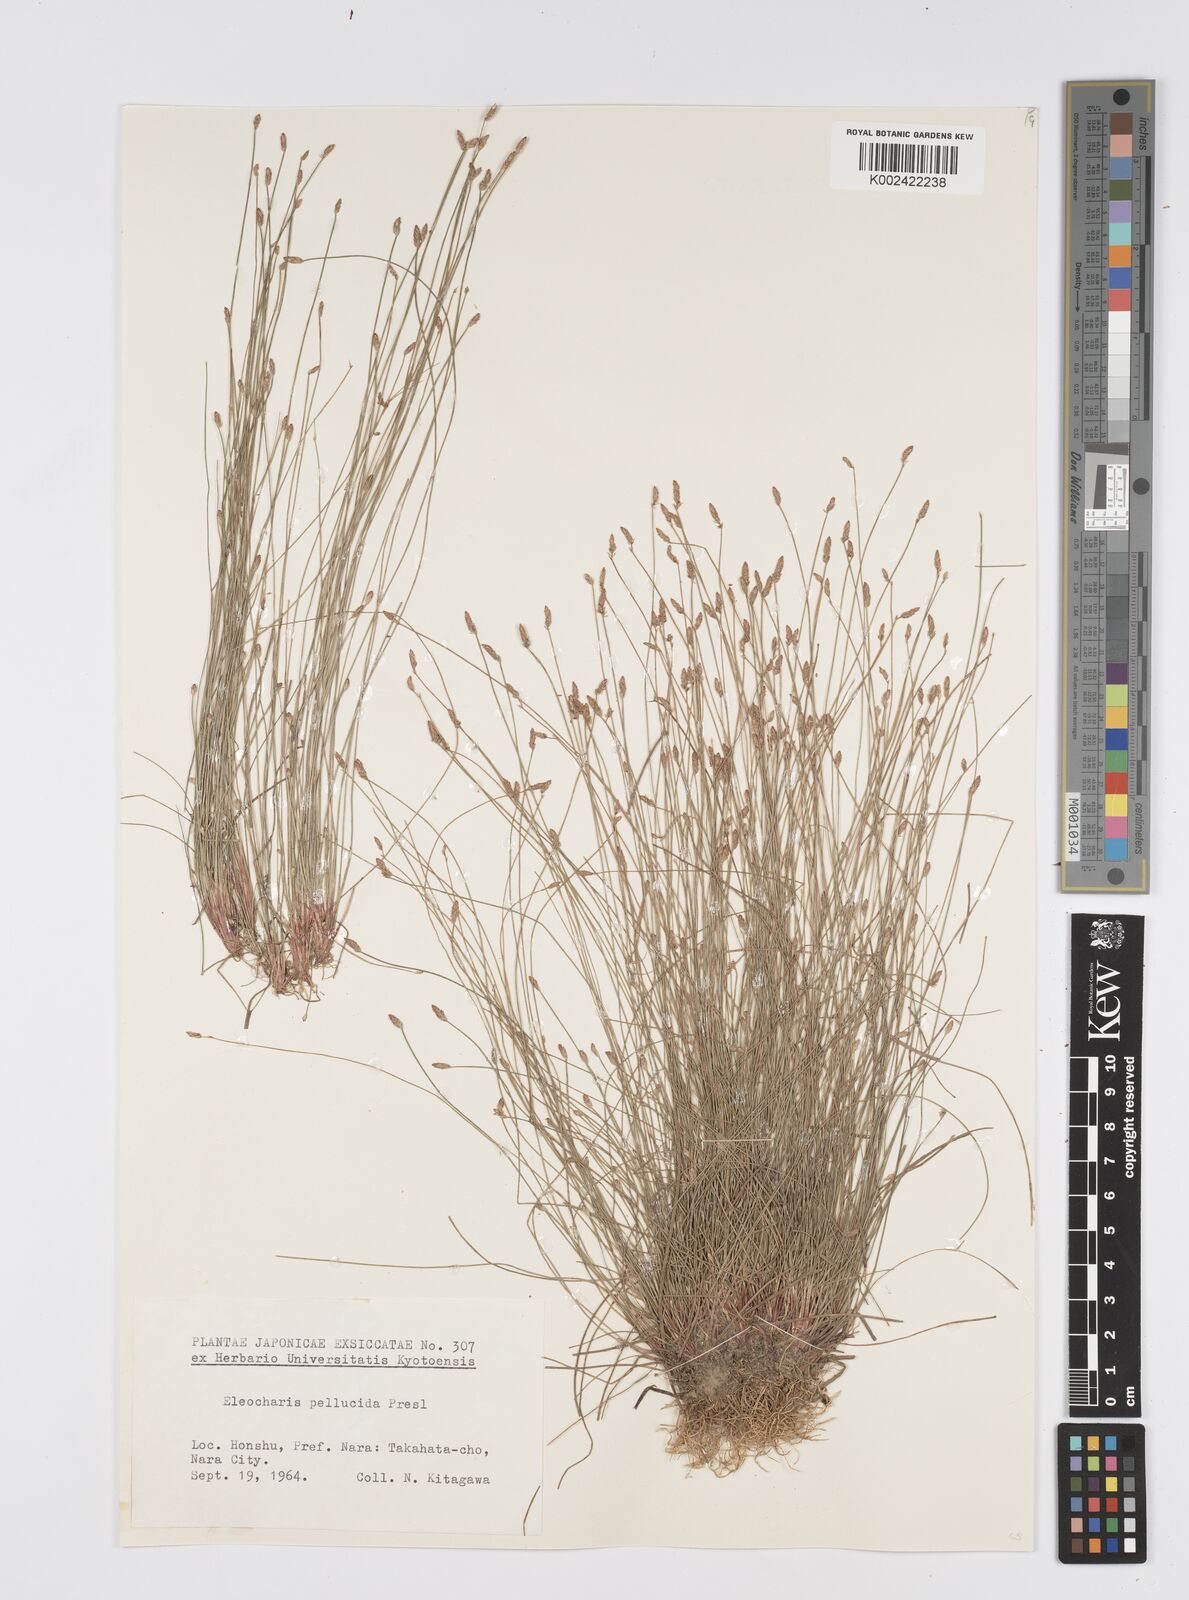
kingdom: Plantae
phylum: Tracheophyta
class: Liliopsida
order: Poales
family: Cyperaceae
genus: Eleocharis
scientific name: Eleocharis pellucida
